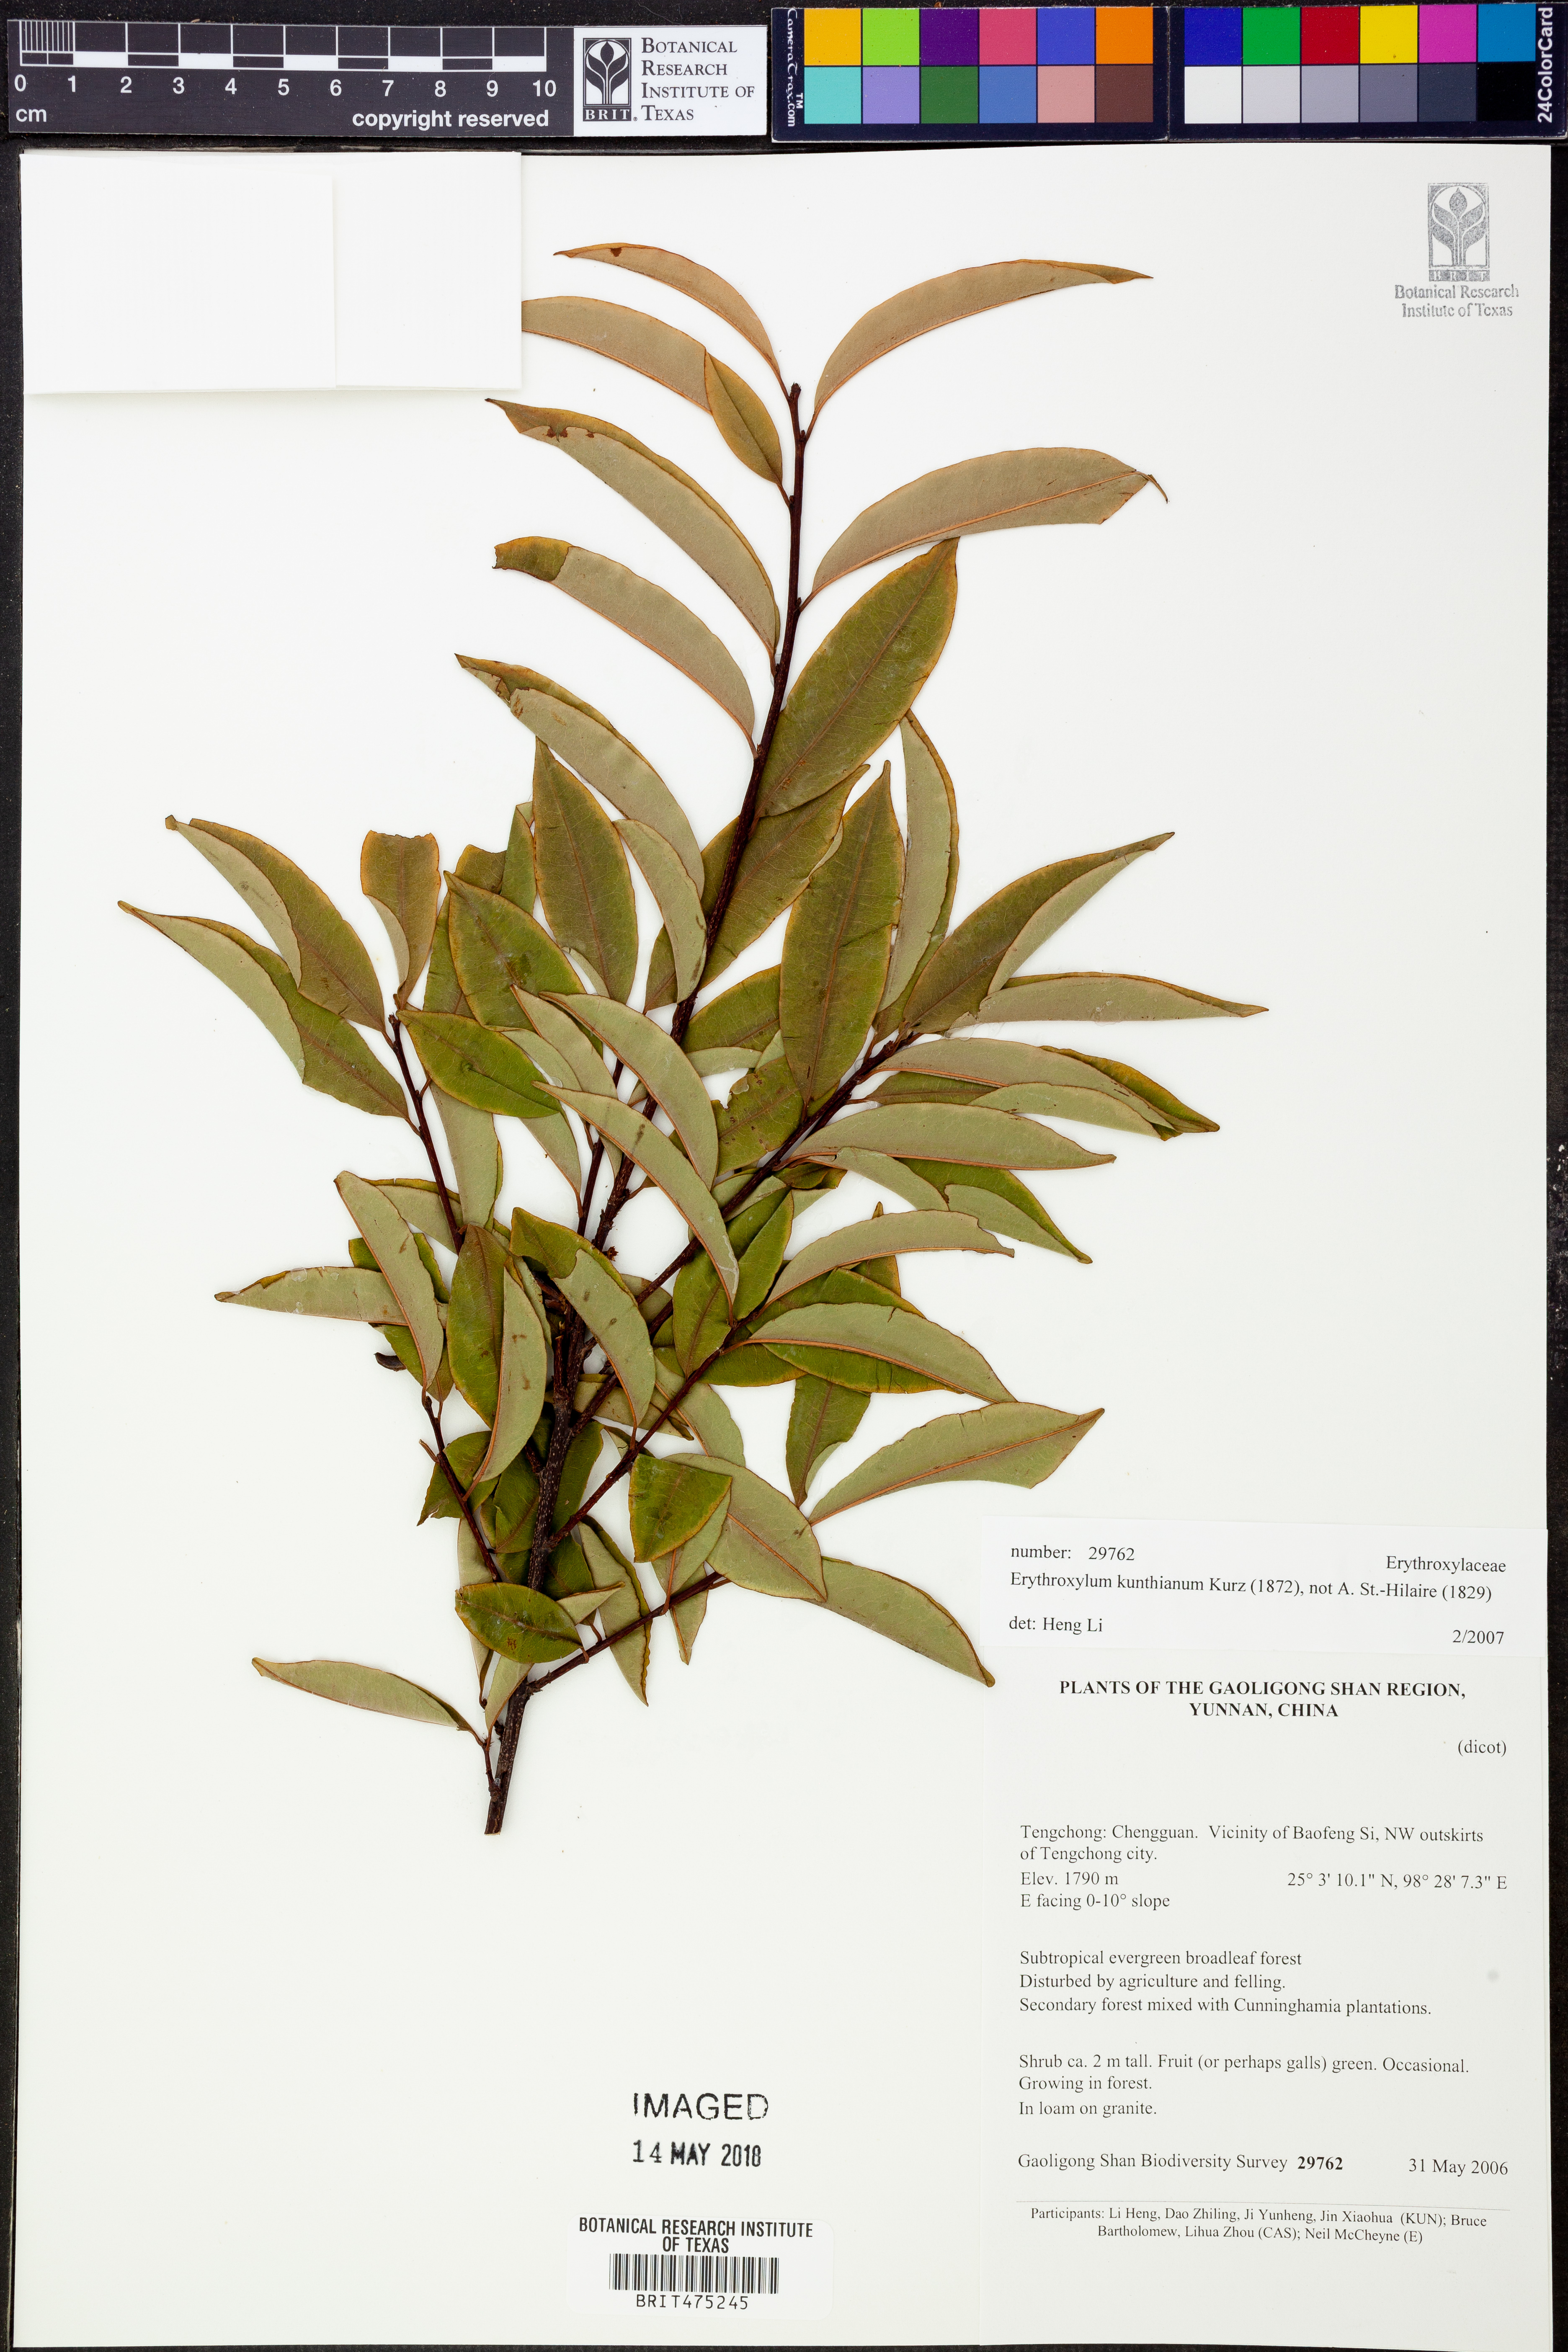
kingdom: Plantae
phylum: Tracheophyta
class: Magnoliopsida
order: Malpighiales
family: Erythroxylaceae
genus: Erythroxylum
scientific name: Erythroxylum frangulifolium
